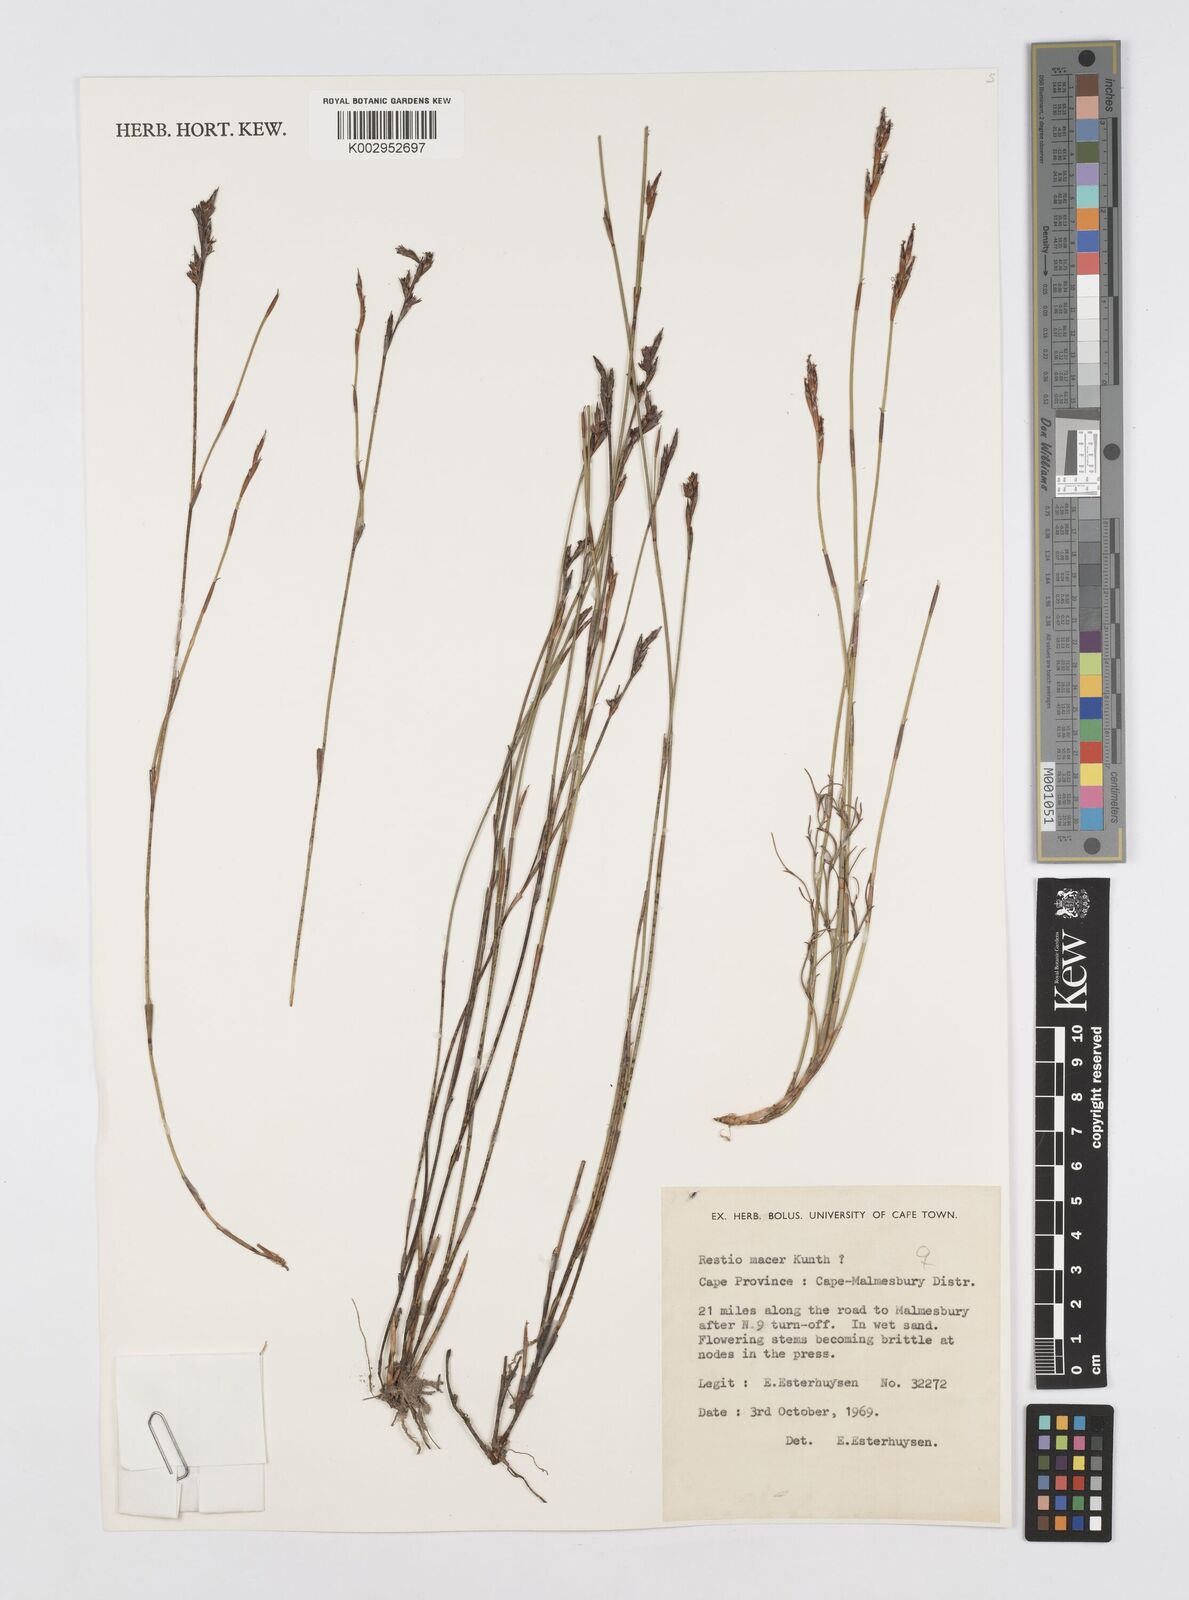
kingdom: Plantae
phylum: Tracheophyta
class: Liliopsida
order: Poales
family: Restionaceae
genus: Restio
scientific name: Restio macer
